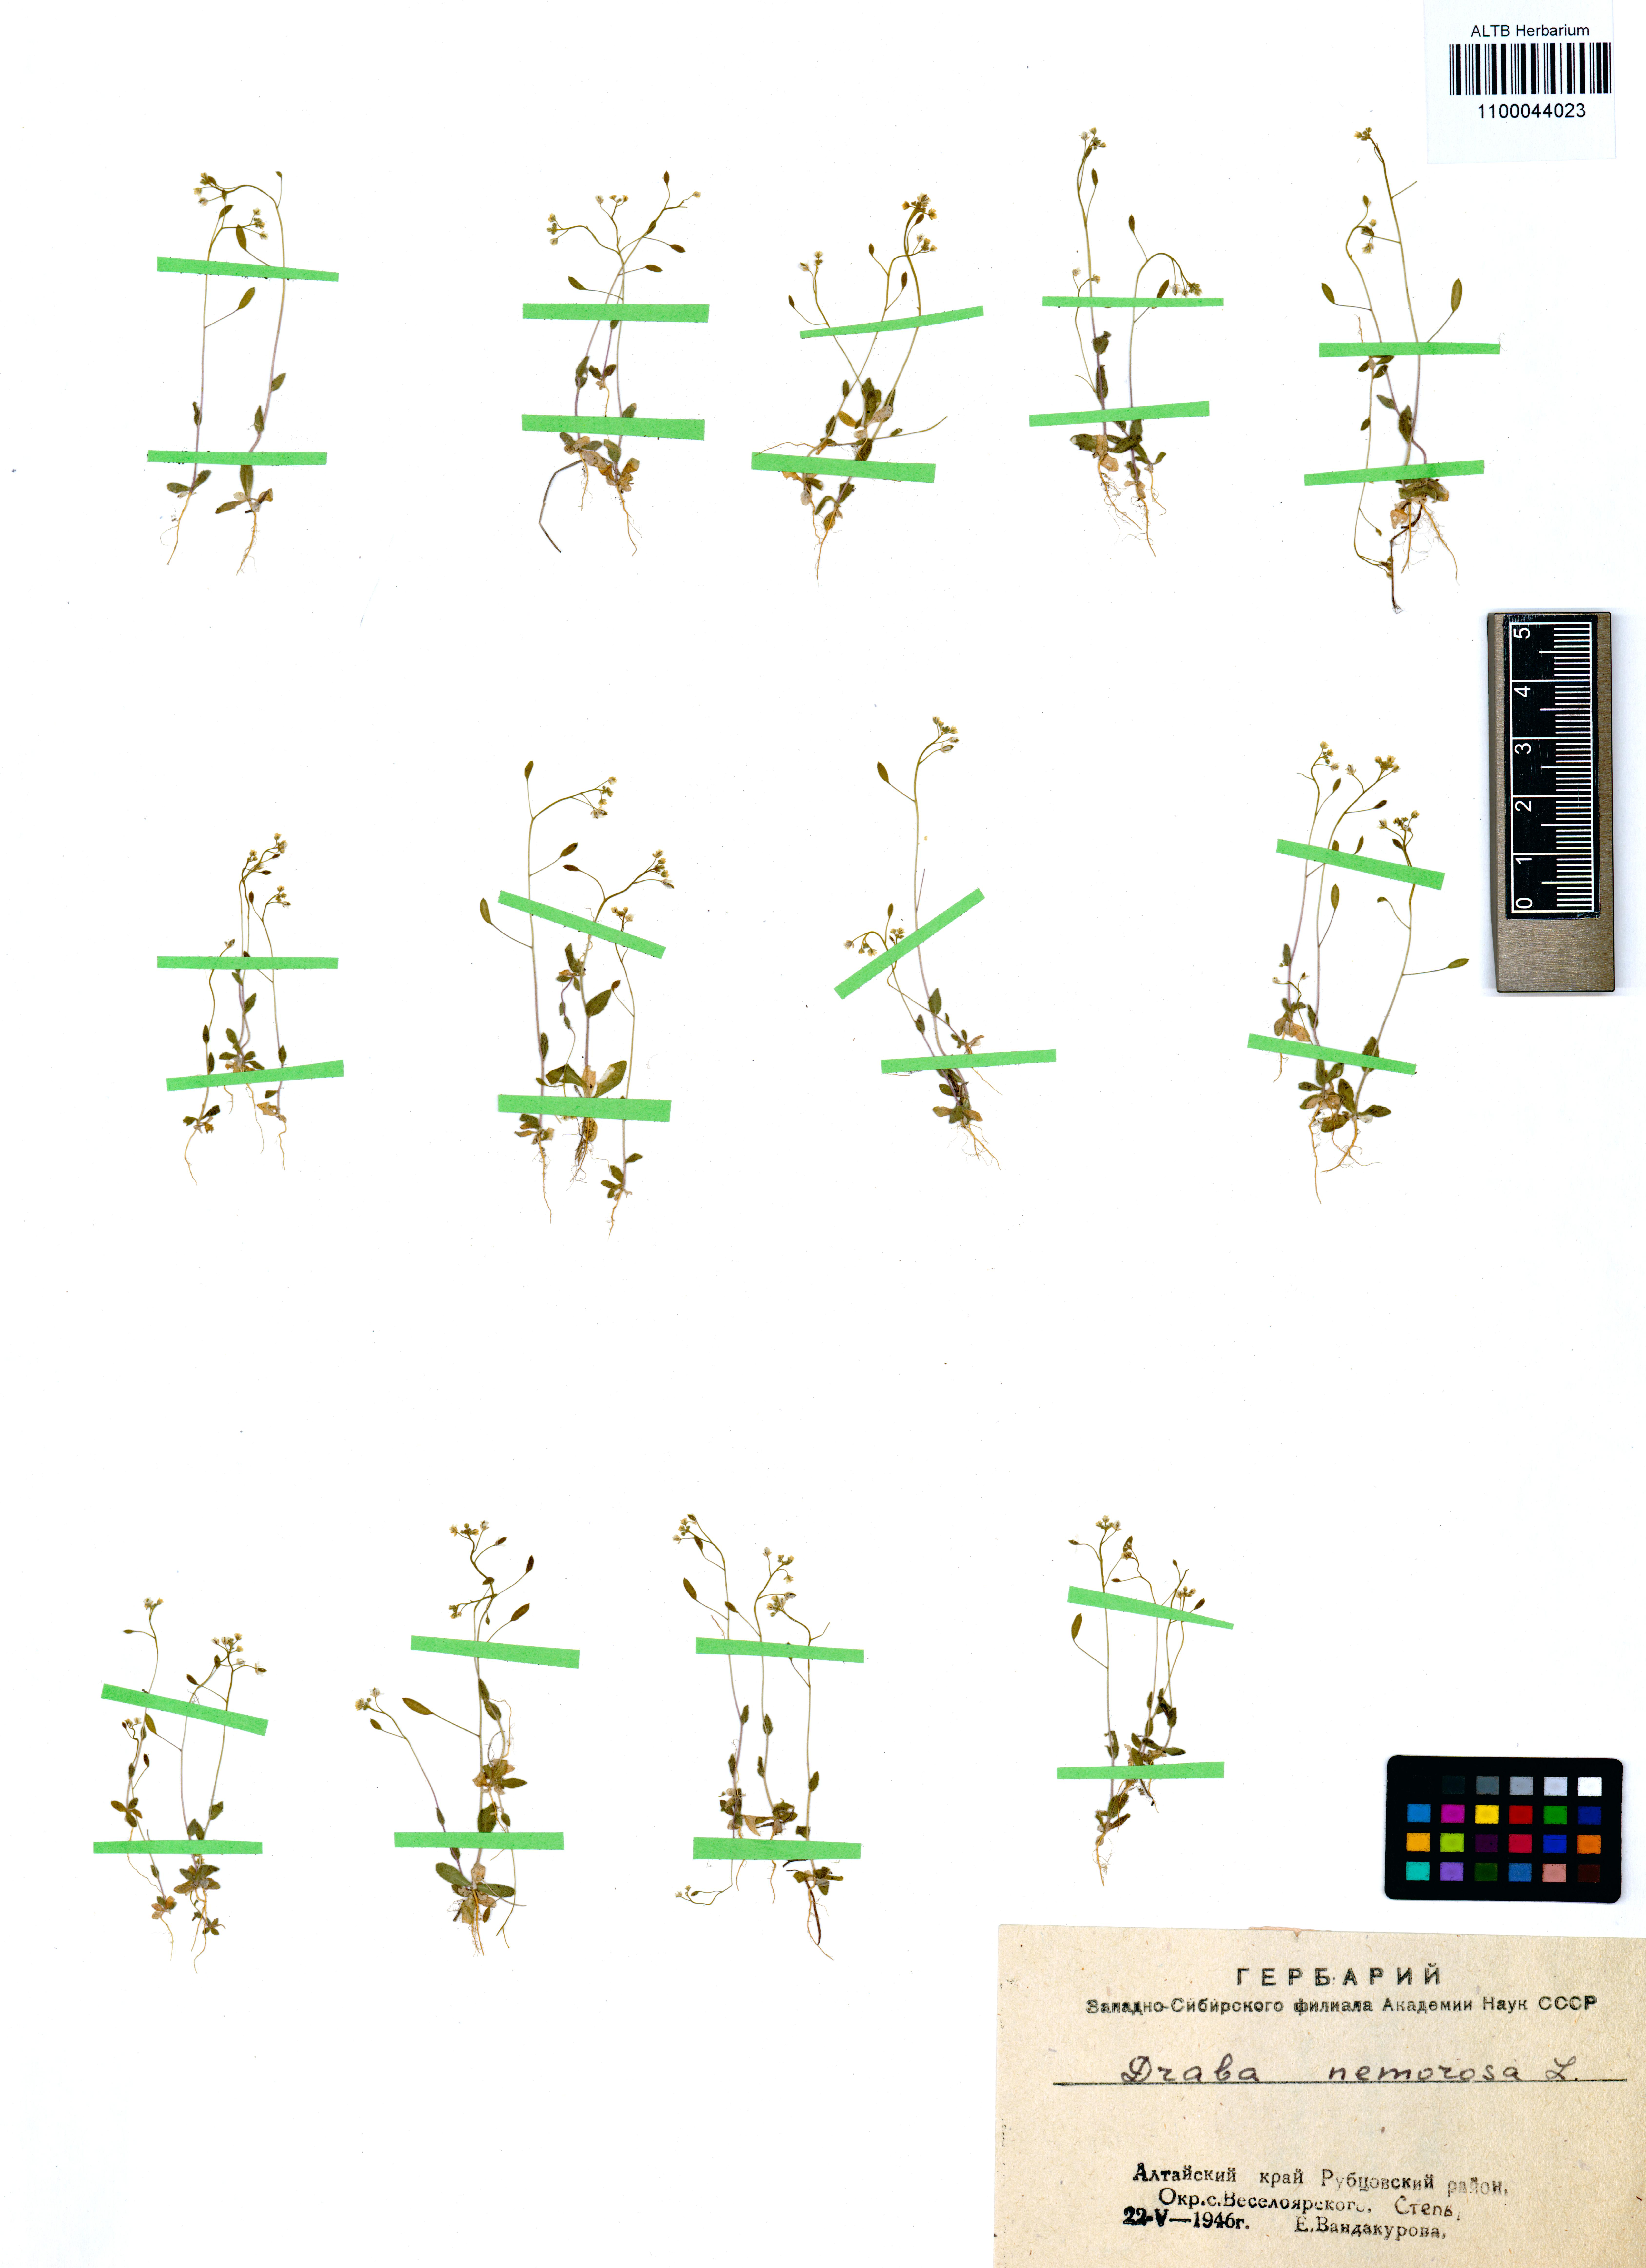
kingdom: Plantae
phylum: Tracheophyta
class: Magnoliopsida
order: Brassicales
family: Brassicaceae
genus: Draba
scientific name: Draba nemorosa
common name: Wood whitlow-grass
